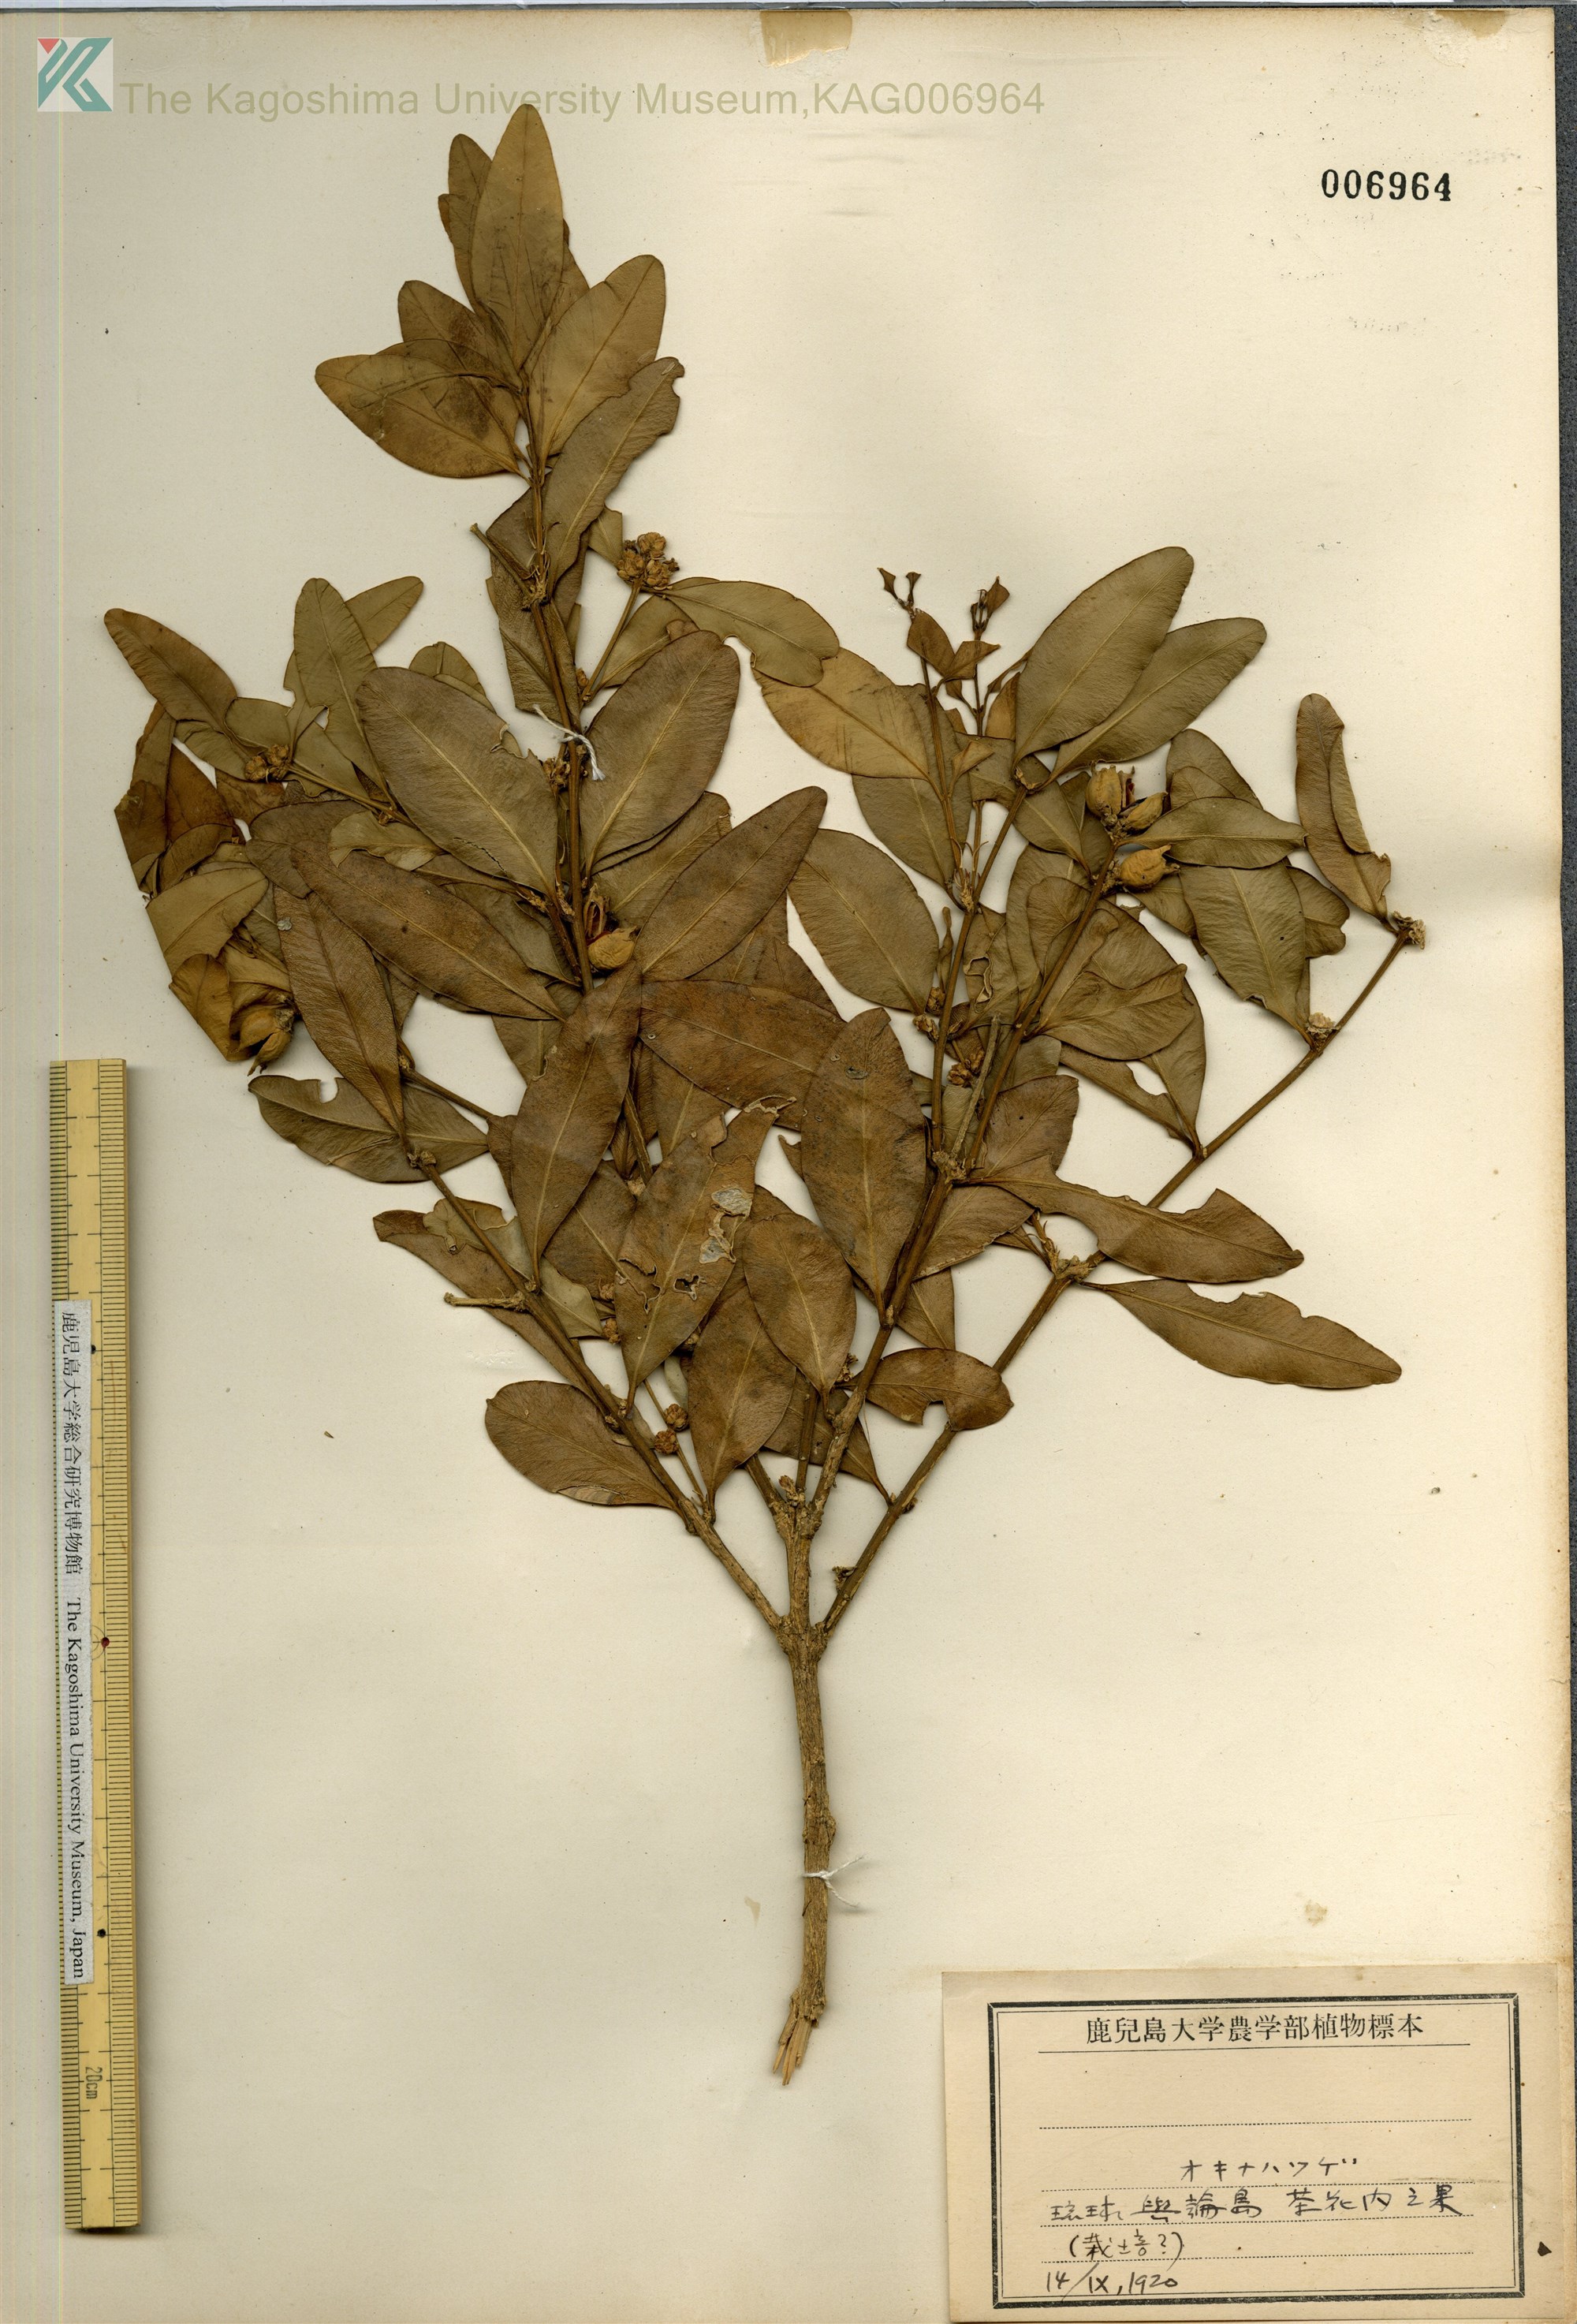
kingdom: Plantae
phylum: Tracheophyta
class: Magnoliopsida
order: Buxales
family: Buxaceae
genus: Buxus
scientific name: Buxus liukiuensis
